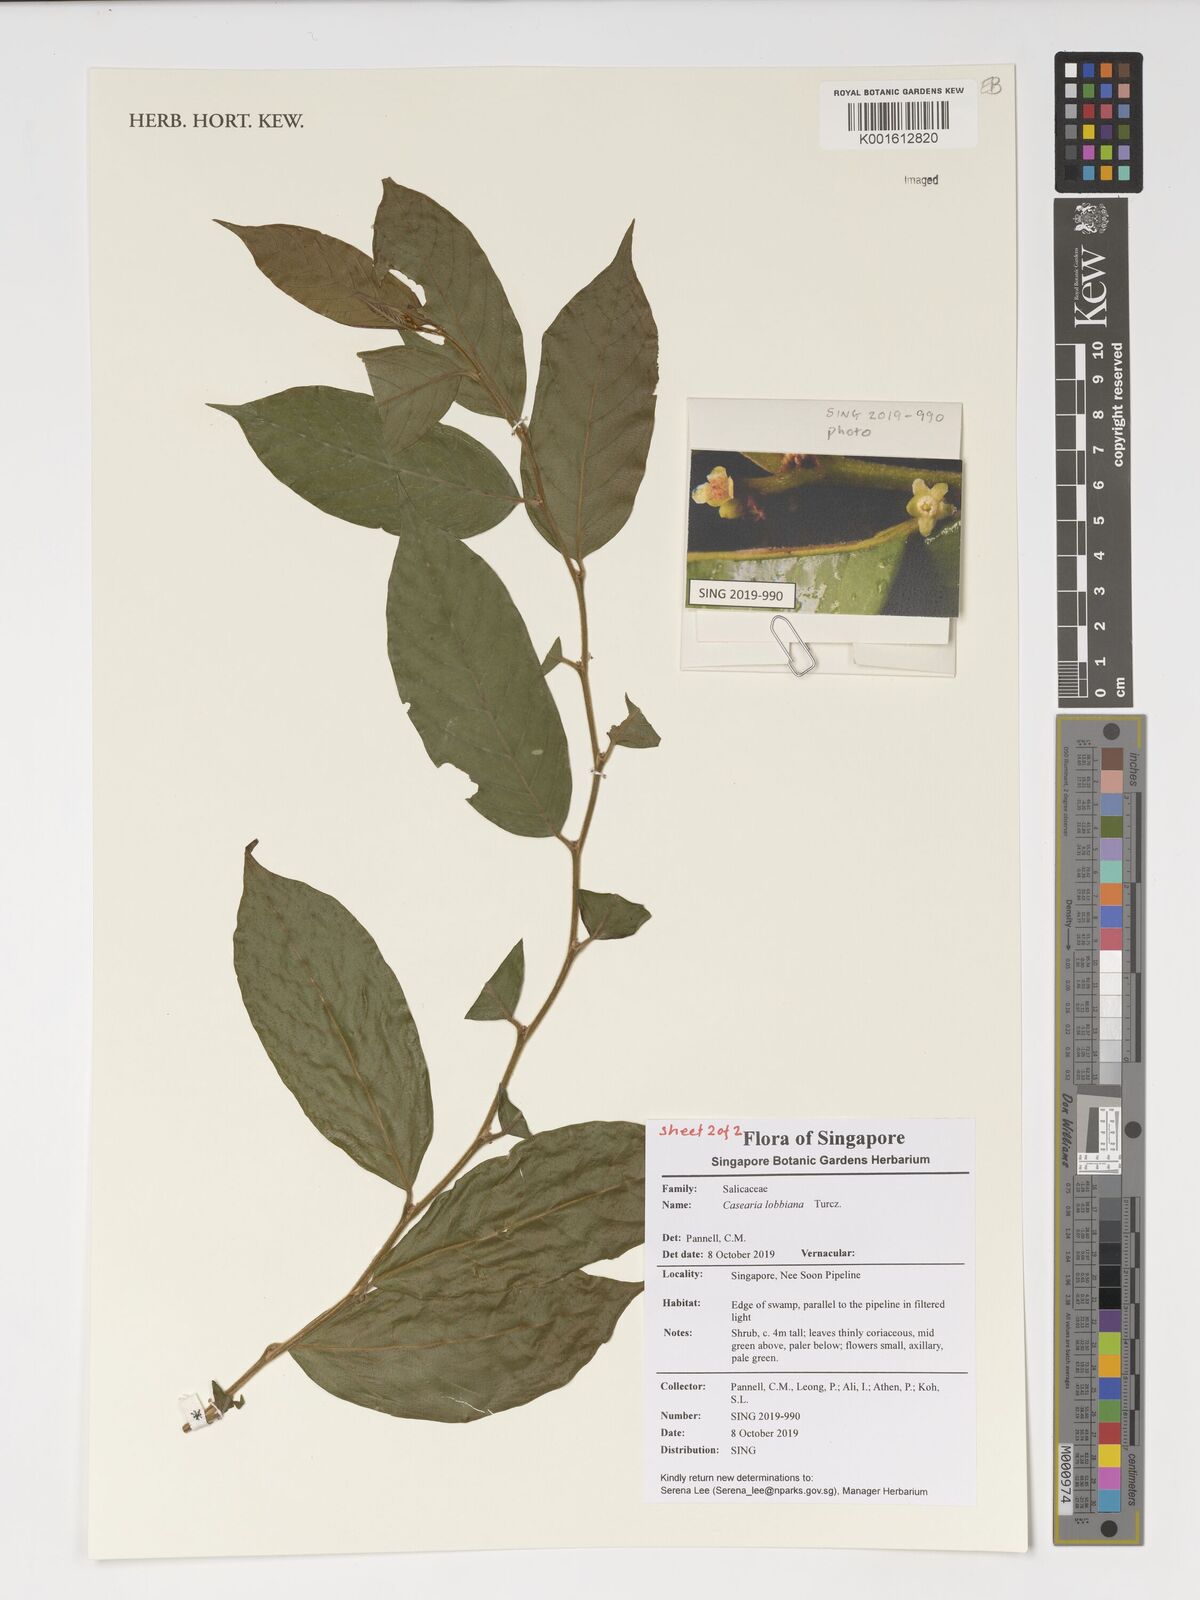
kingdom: Plantae
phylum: Tracheophyta
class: Magnoliopsida
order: Malpighiales
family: Salicaceae
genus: Casearia
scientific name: Casearia lobbiana
